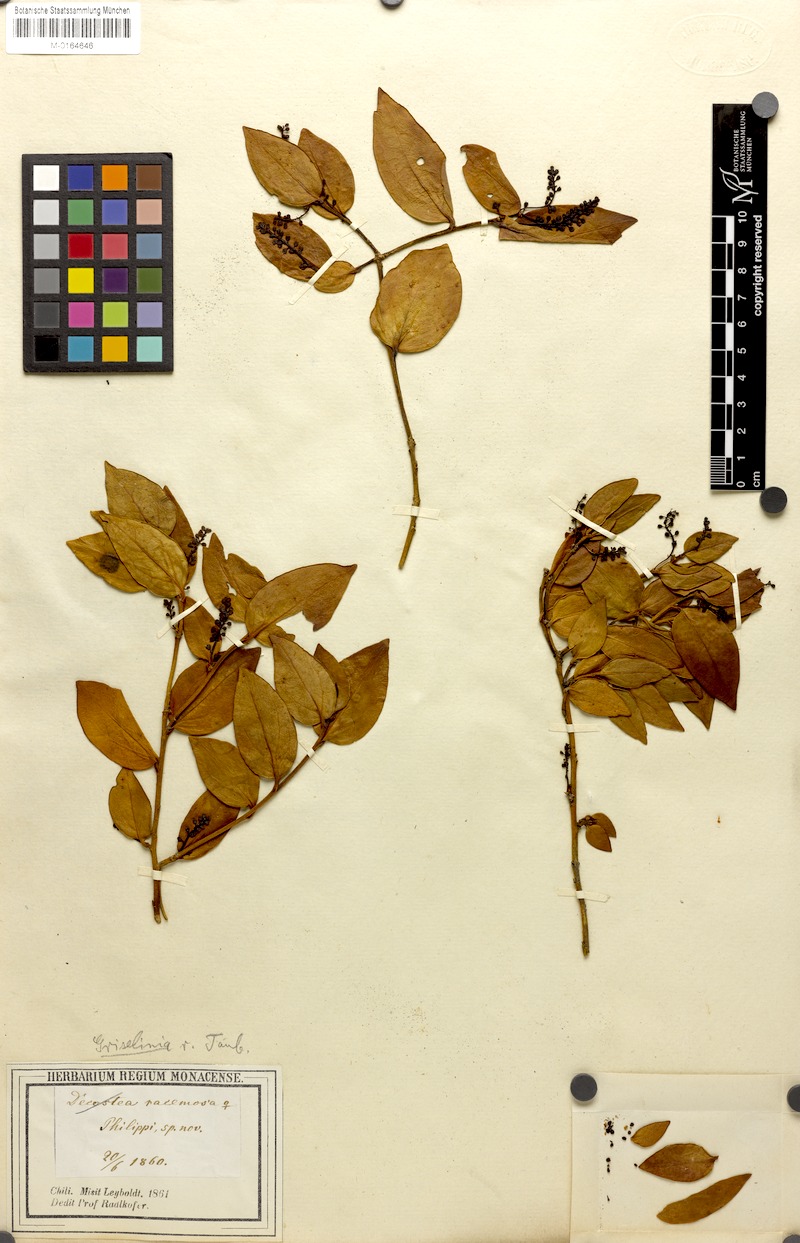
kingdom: Plantae
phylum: Tracheophyta
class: Magnoliopsida
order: Apiales
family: Griseliniaceae
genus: Griselinia
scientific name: Griselinia racemosa
